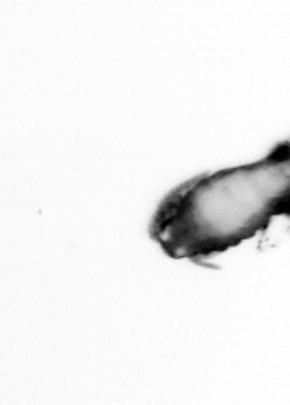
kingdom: Animalia
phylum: Arthropoda
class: Copepoda
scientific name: Copepoda
